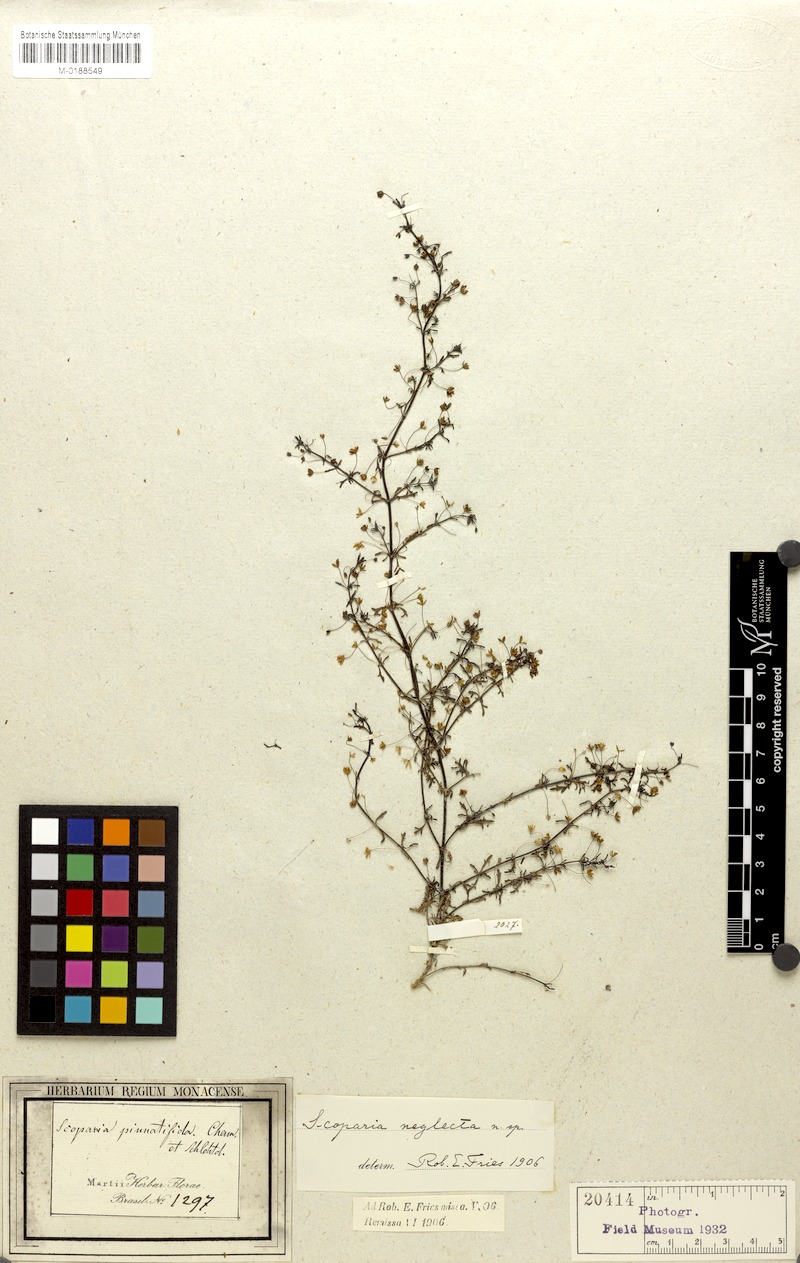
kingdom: Plantae
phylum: Tracheophyta
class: Magnoliopsida
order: Lamiales
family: Plantaginaceae
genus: Scoparia
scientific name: Scoparia montevidensis
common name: Broomwort
